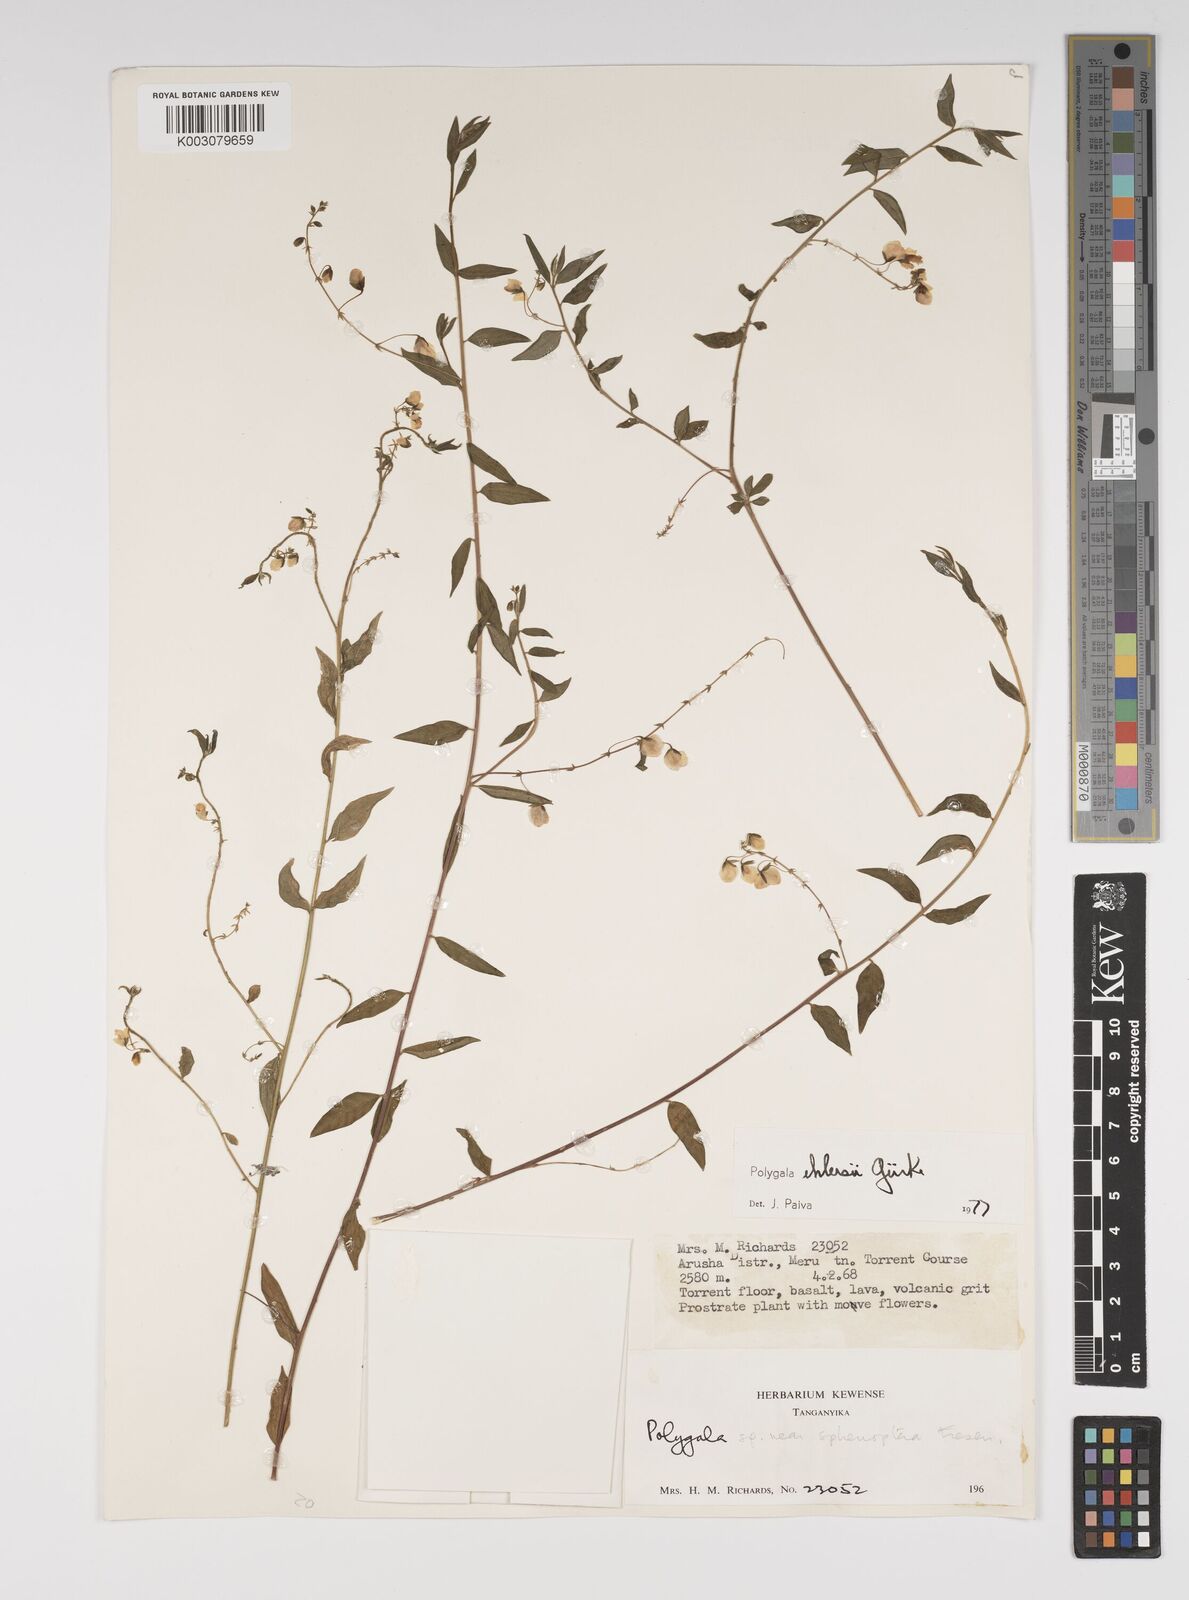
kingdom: Plantae
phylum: Tracheophyta
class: Magnoliopsida
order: Fabales
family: Polygalaceae
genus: Polygala
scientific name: Polygala ehlersii
